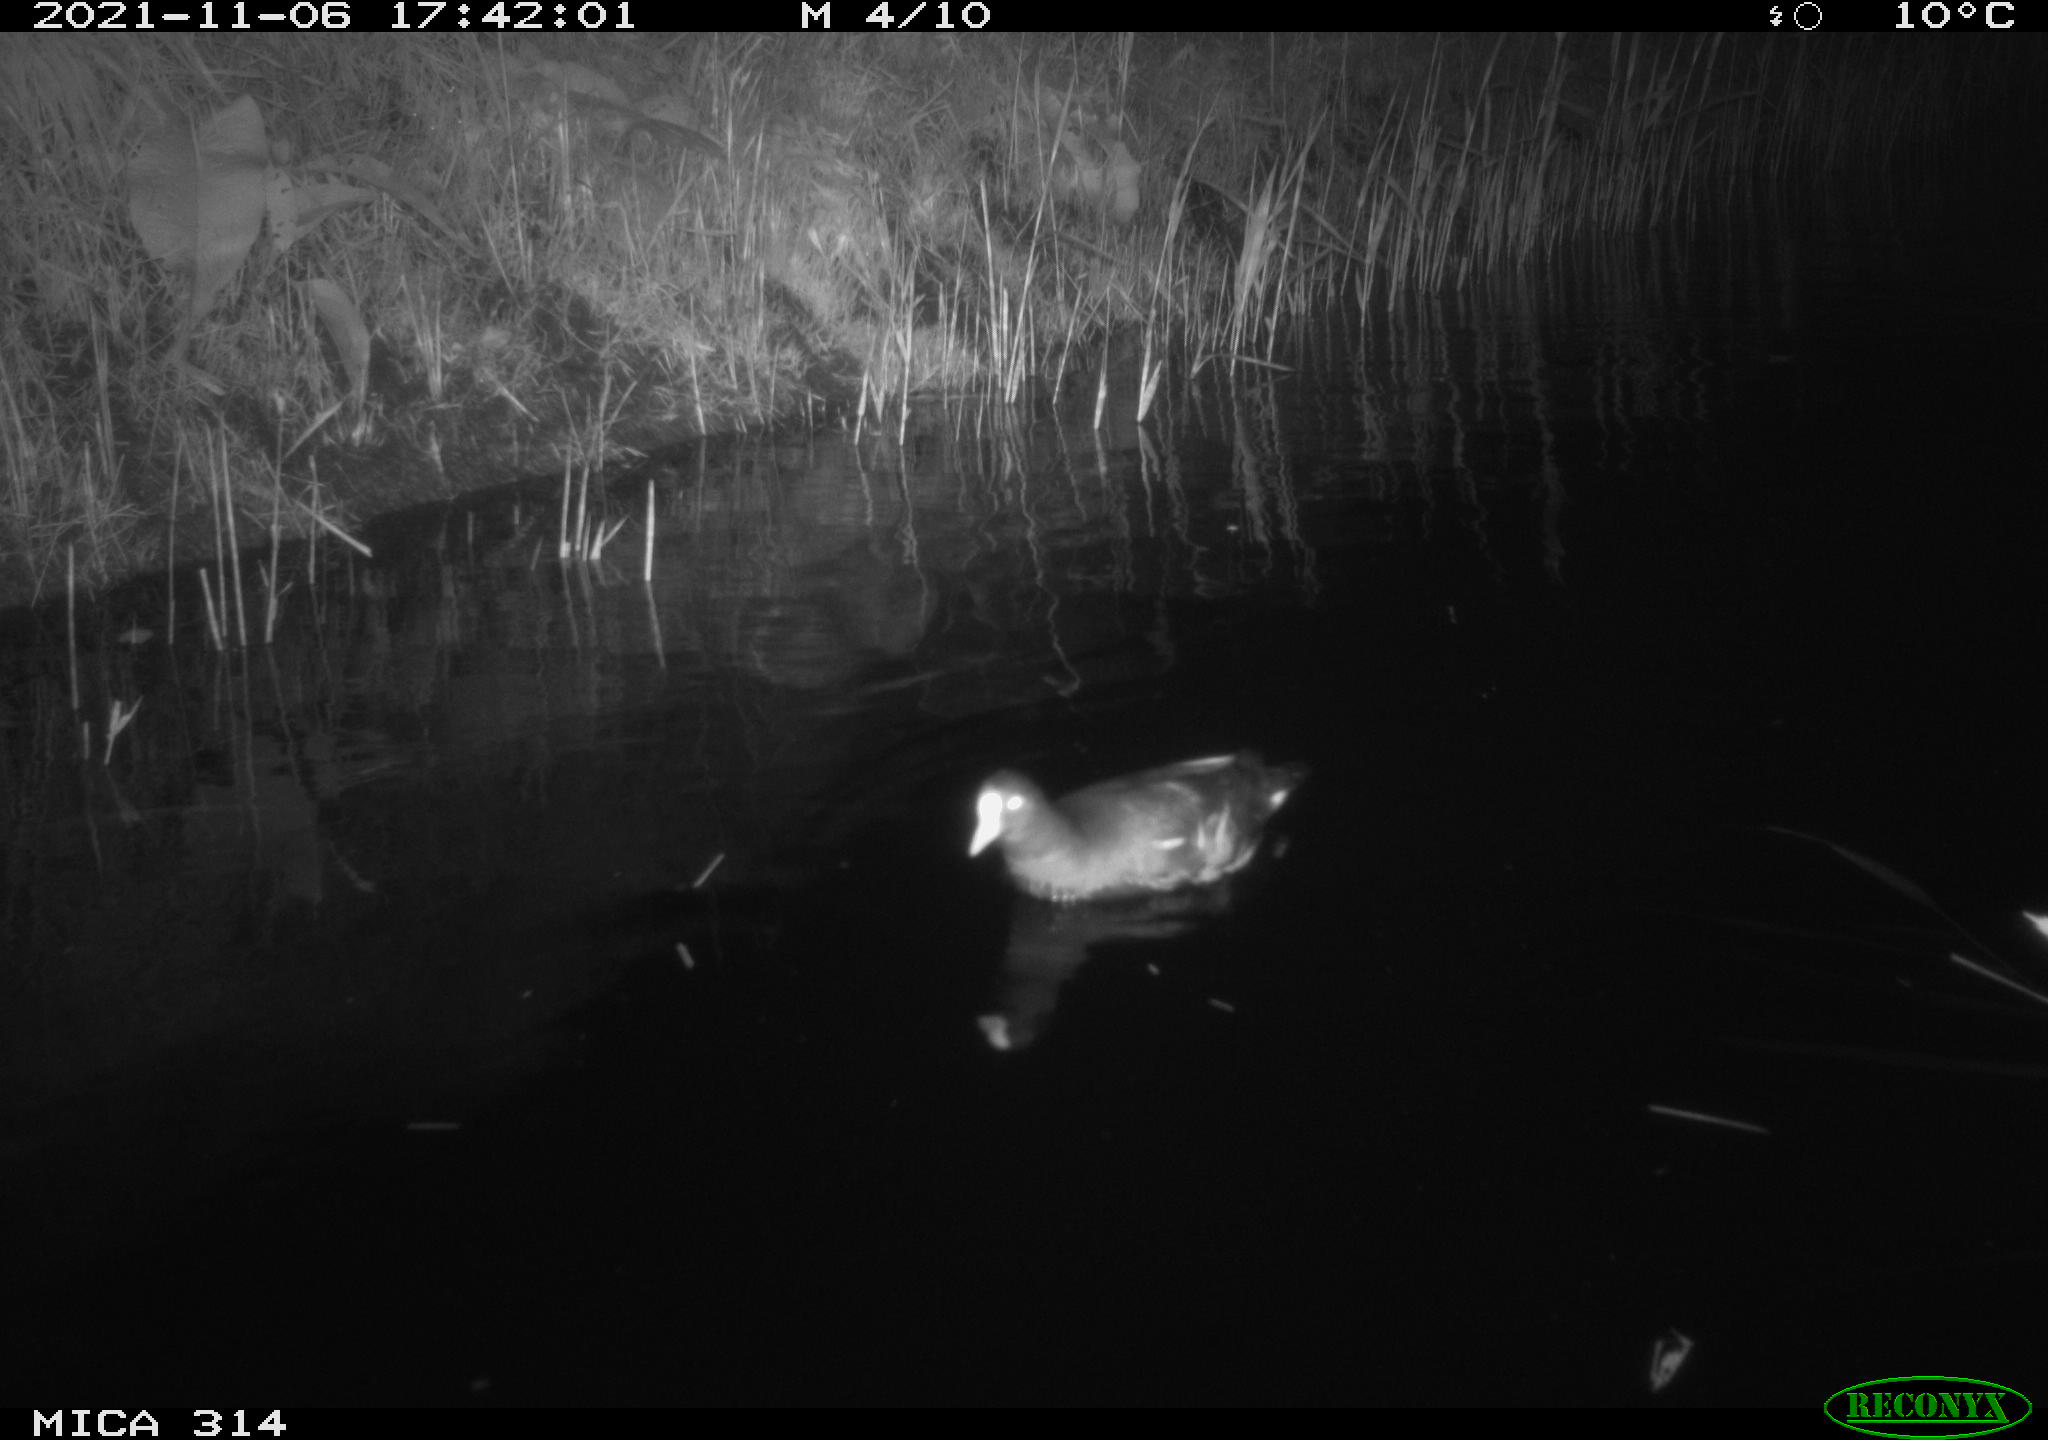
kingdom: Animalia
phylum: Chordata
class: Aves
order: Gruiformes
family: Rallidae
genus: Fulica
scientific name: Fulica atra
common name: Eurasian coot
